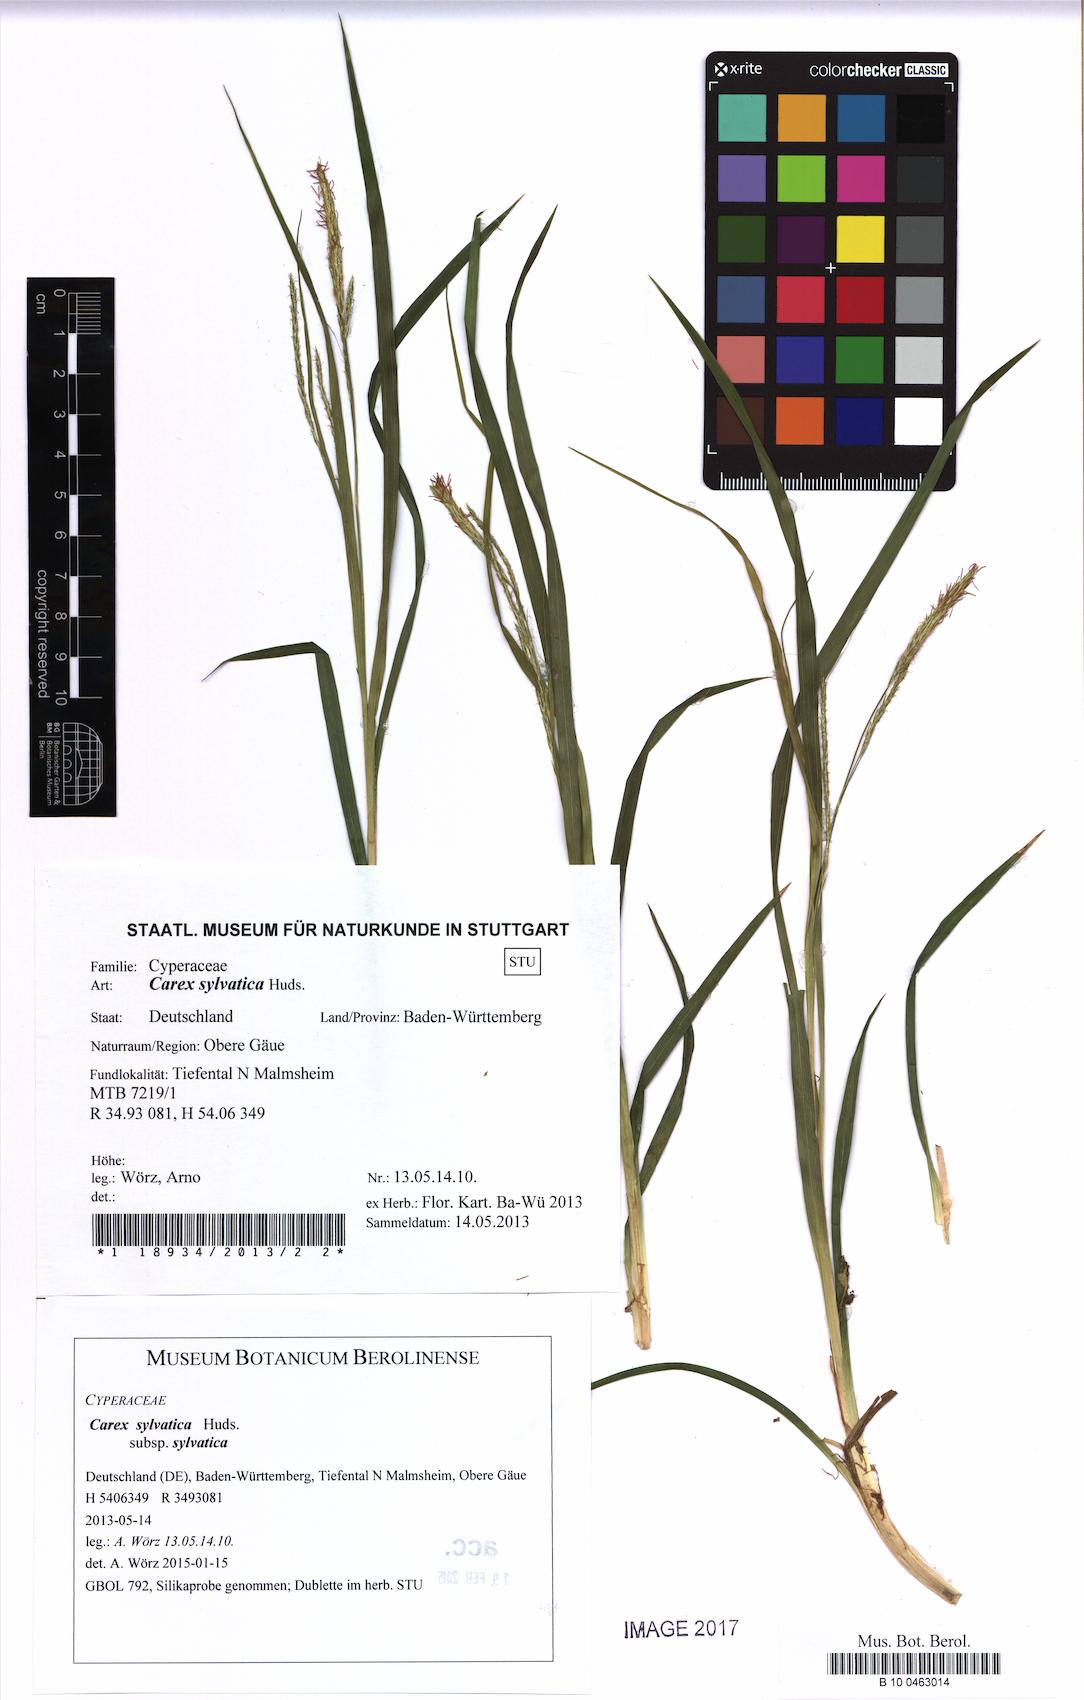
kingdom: Plantae
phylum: Tracheophyta
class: Liliopsida
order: Poales
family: Cyperaceae
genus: Carex
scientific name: Carex sylvatica
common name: Wood-sedge
